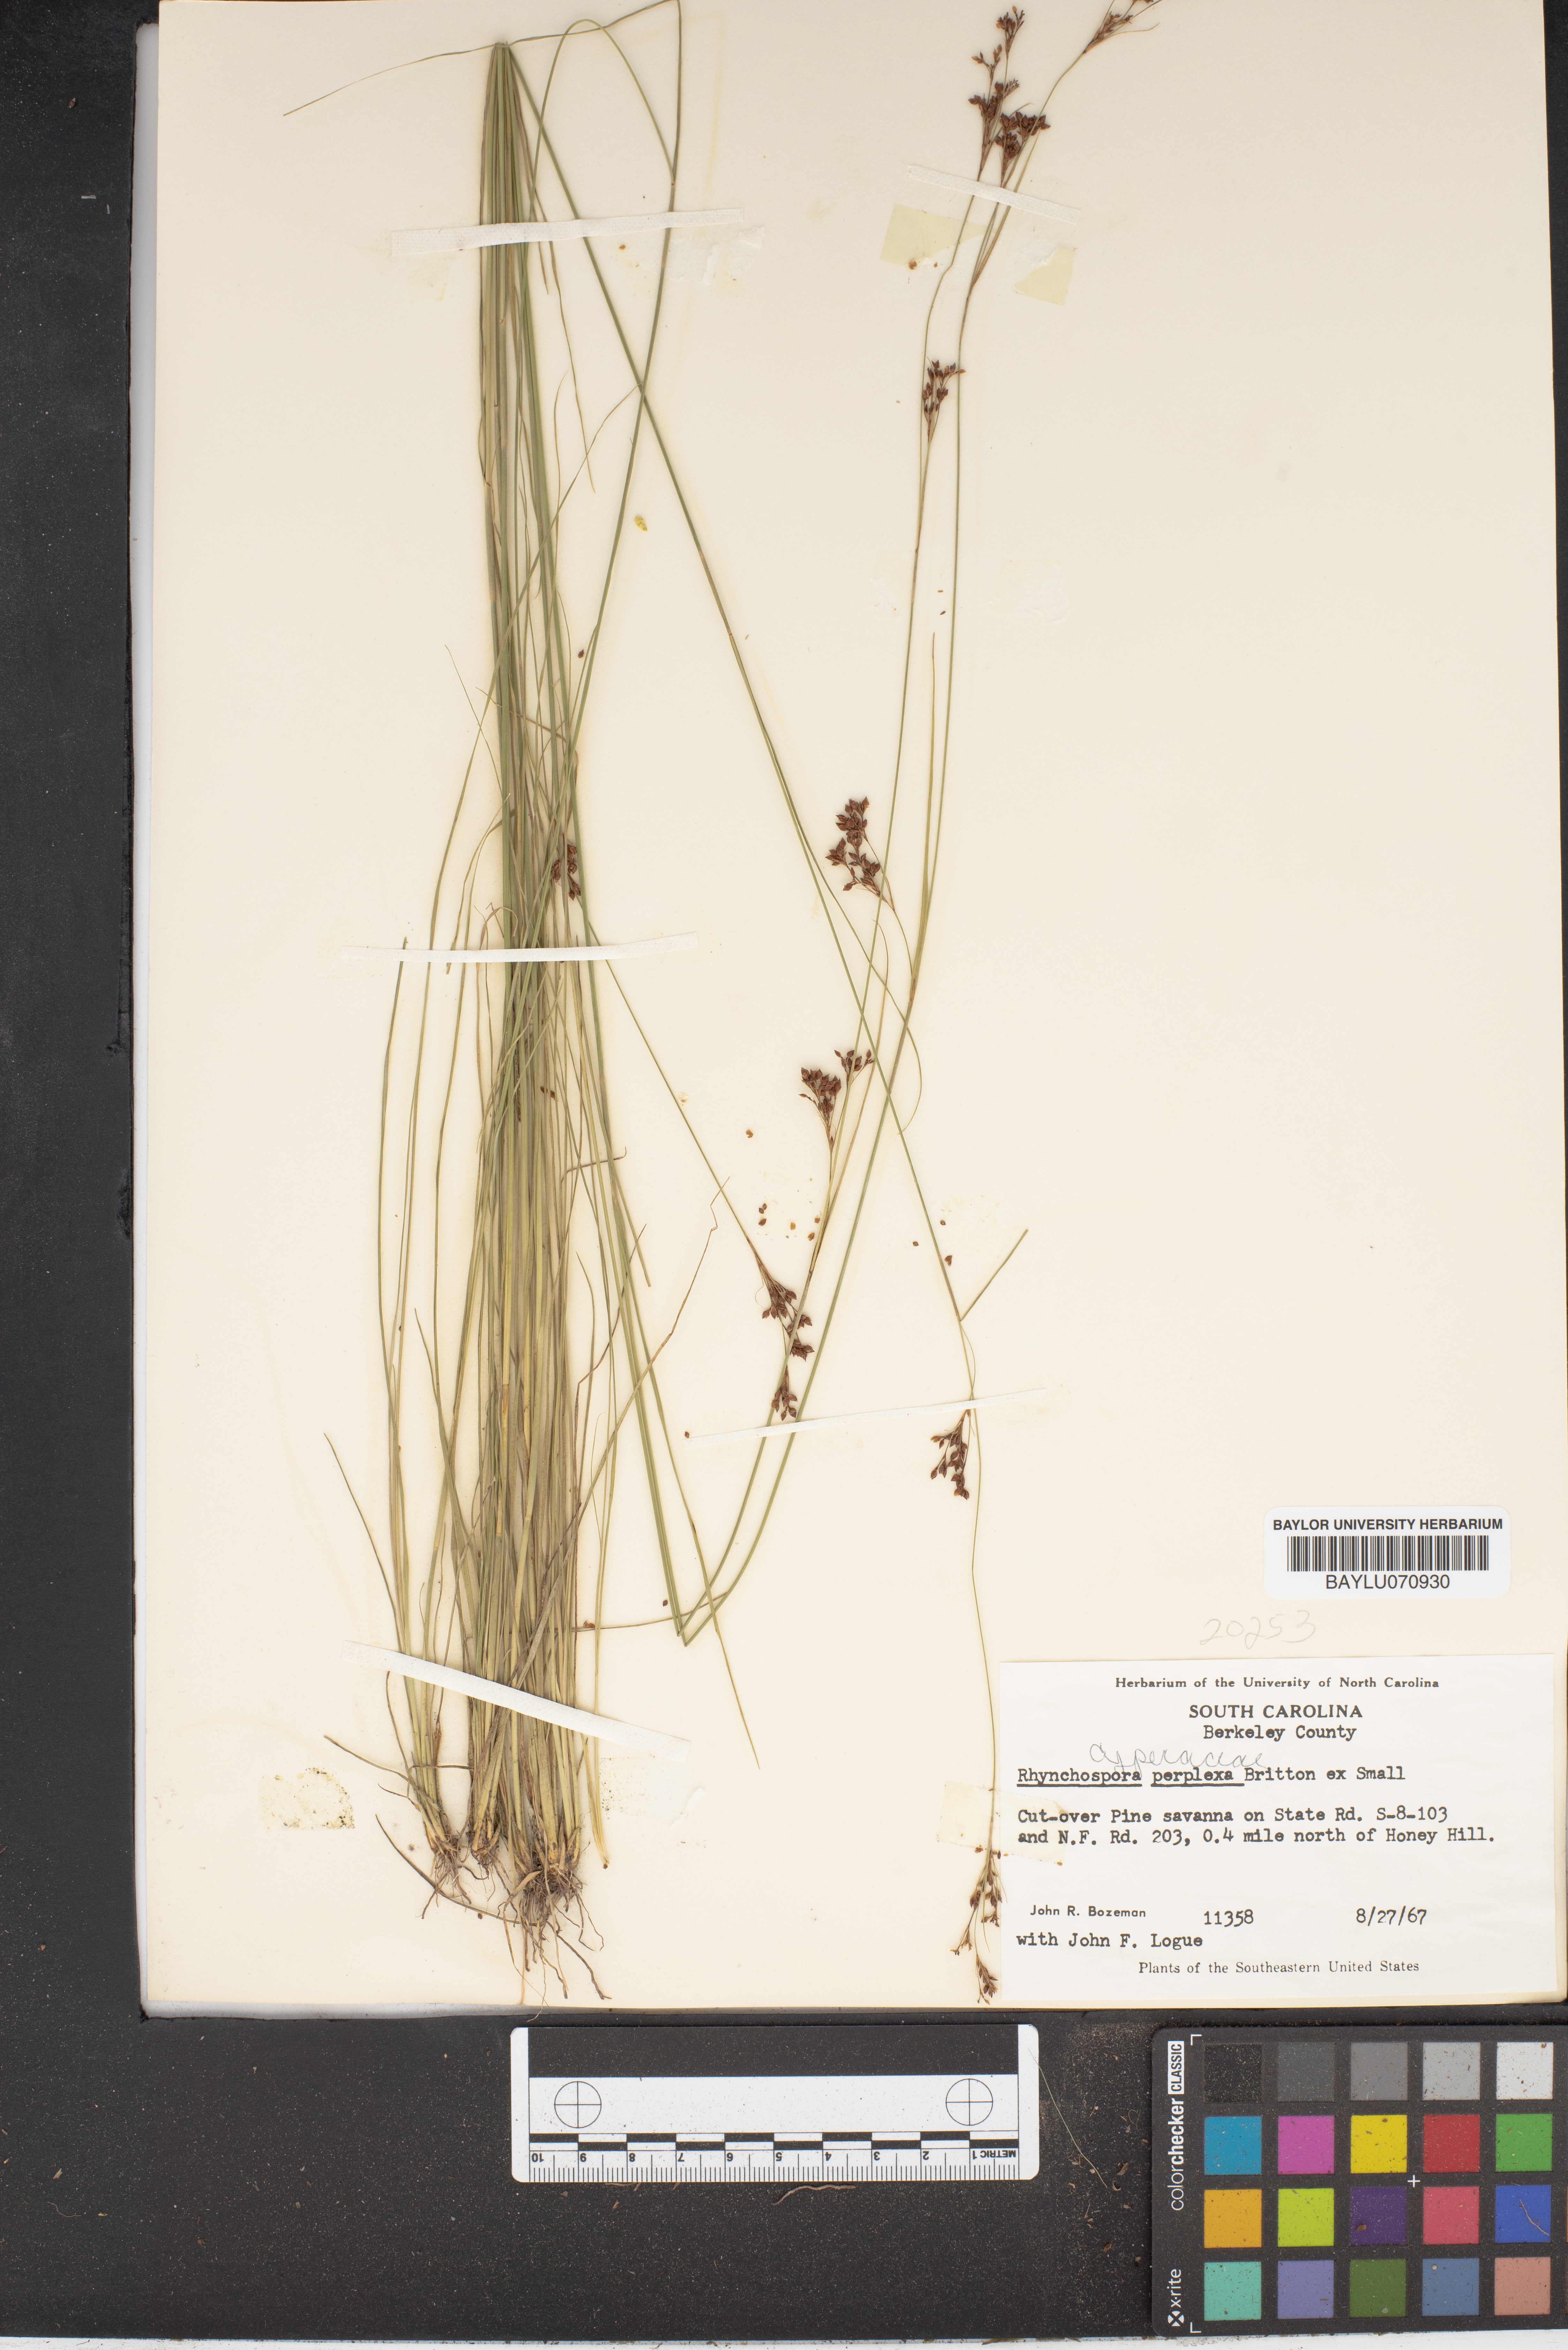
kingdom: Plantae
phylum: Tracheophyta
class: Liliopsida
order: Poales
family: Cyperaceae
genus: Rhynchospora
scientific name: Rhynchospora perplexa
